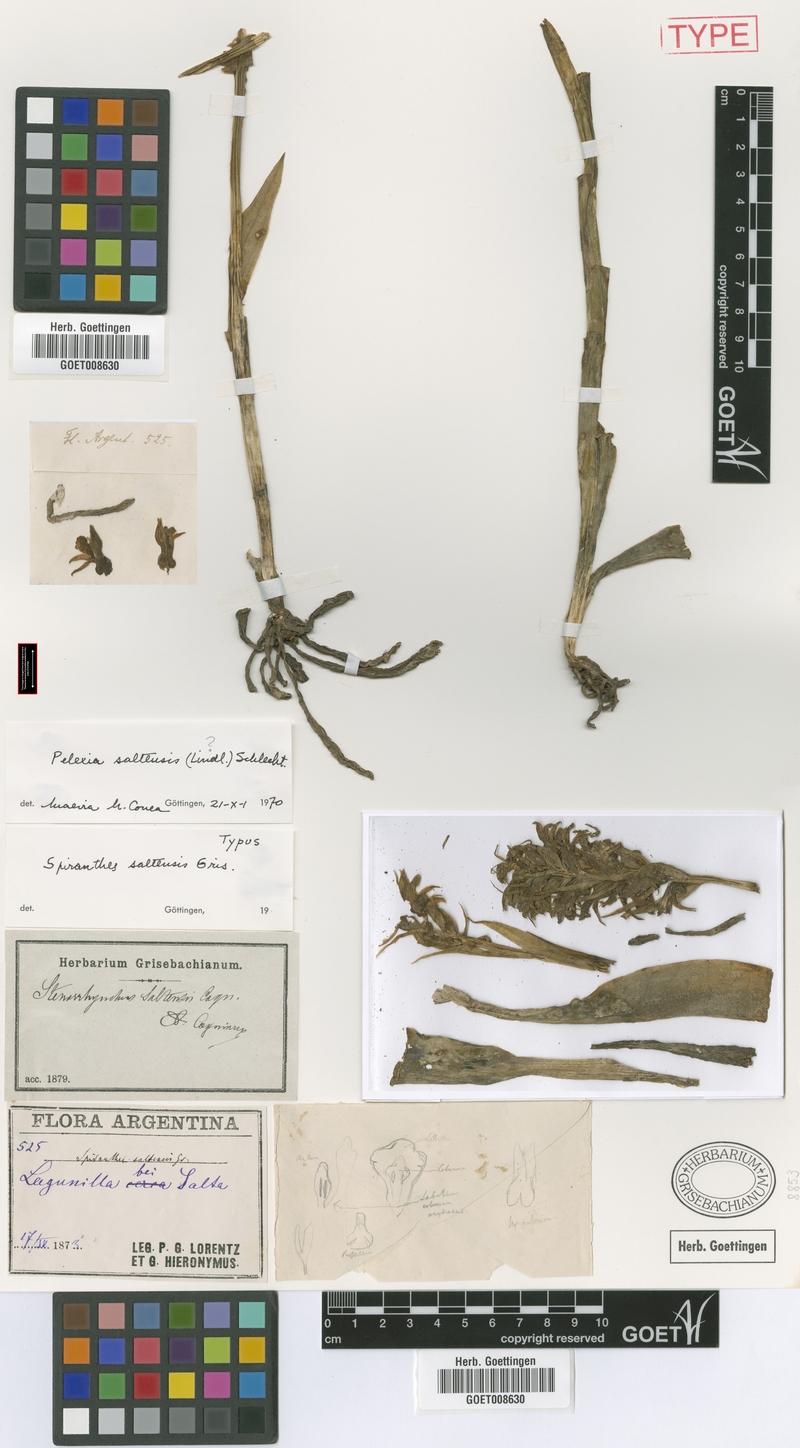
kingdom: Plantae
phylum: Tracheophyta
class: Liliopsida
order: Asparagales
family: Orchidaceae
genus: Pelexia
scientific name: Pelexia bonariensis
